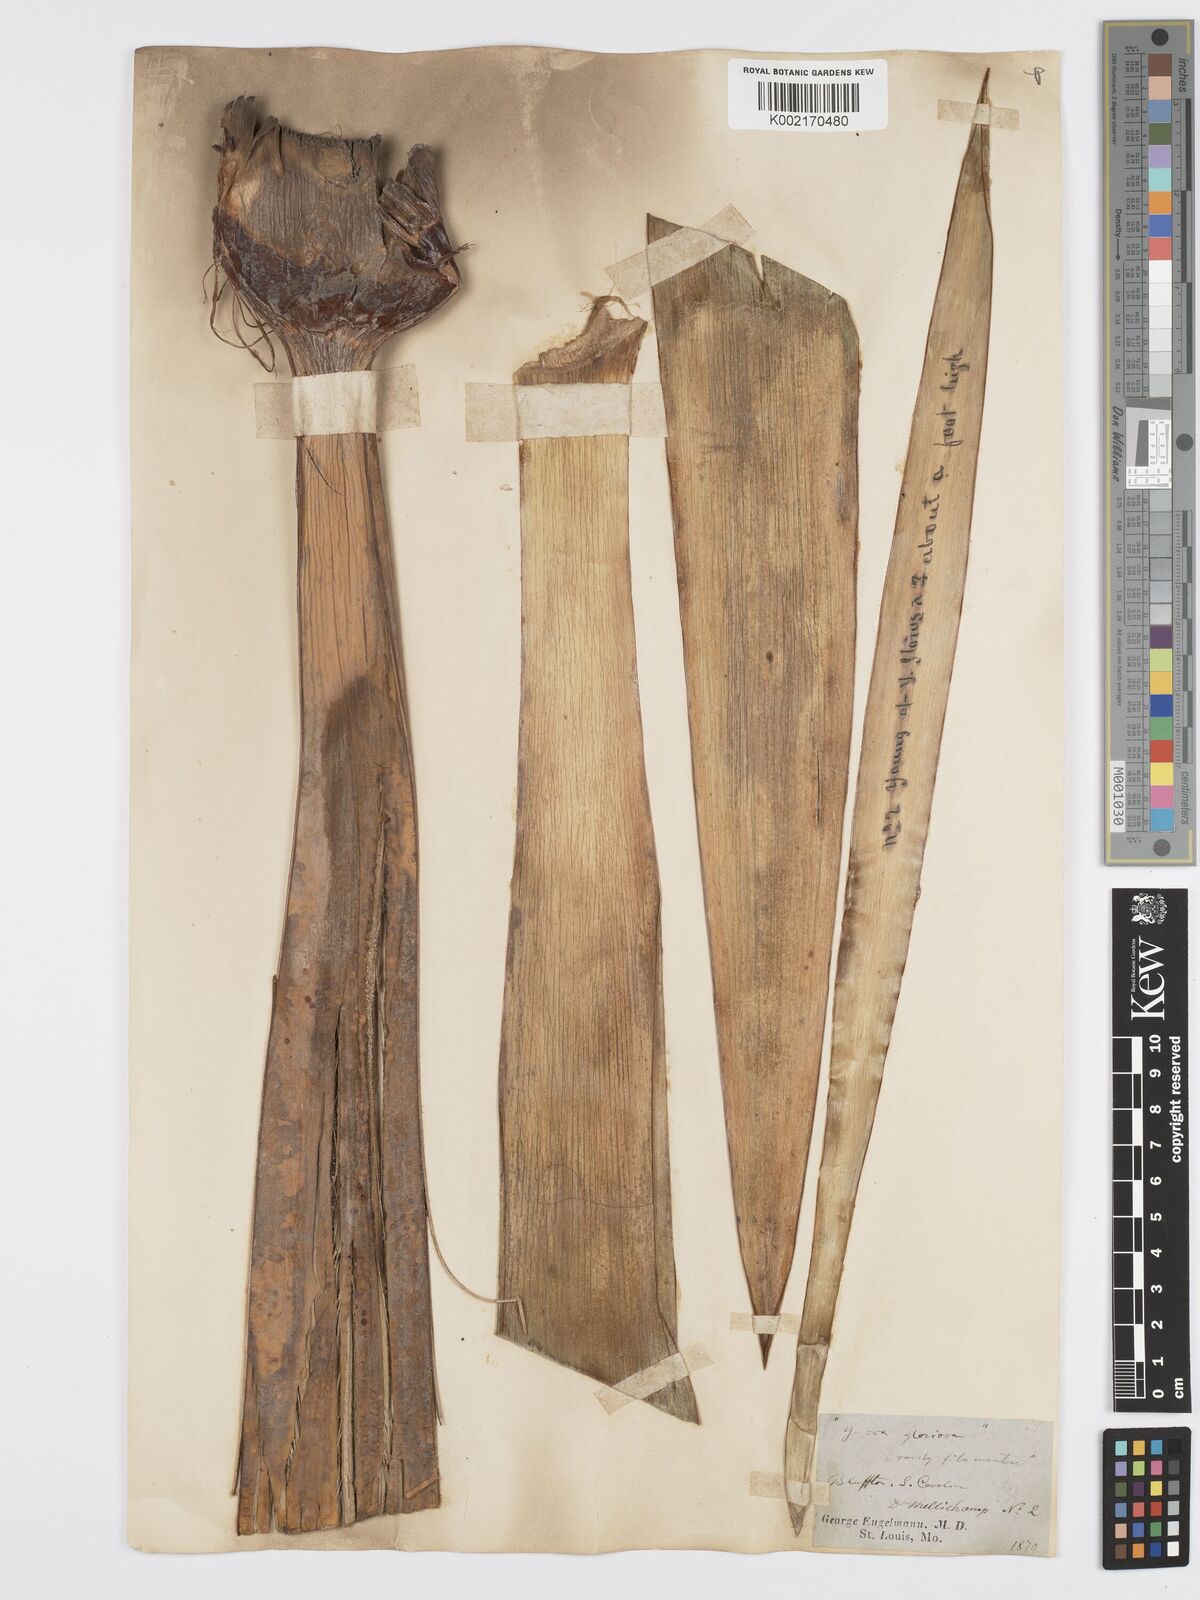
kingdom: Plantae
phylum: Tracheophyta
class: Liliopsida
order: Asparagales
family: Asparagaceae
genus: Yucca
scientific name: Yucca gloriosa
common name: Spanish-dagger
